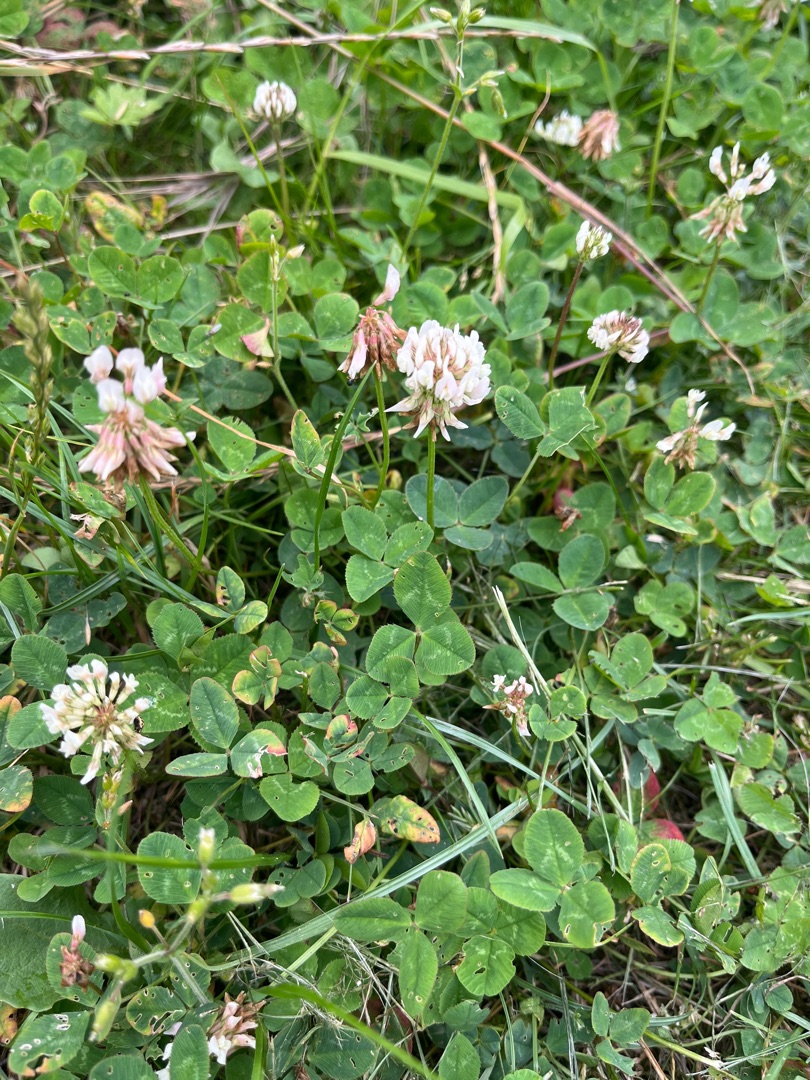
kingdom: Plantae
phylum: Tracheophyta
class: Magnoliopsida
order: Fabales
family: Fabaceae
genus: Trifolium
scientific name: Trifolium repens
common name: Hvid-kløver
